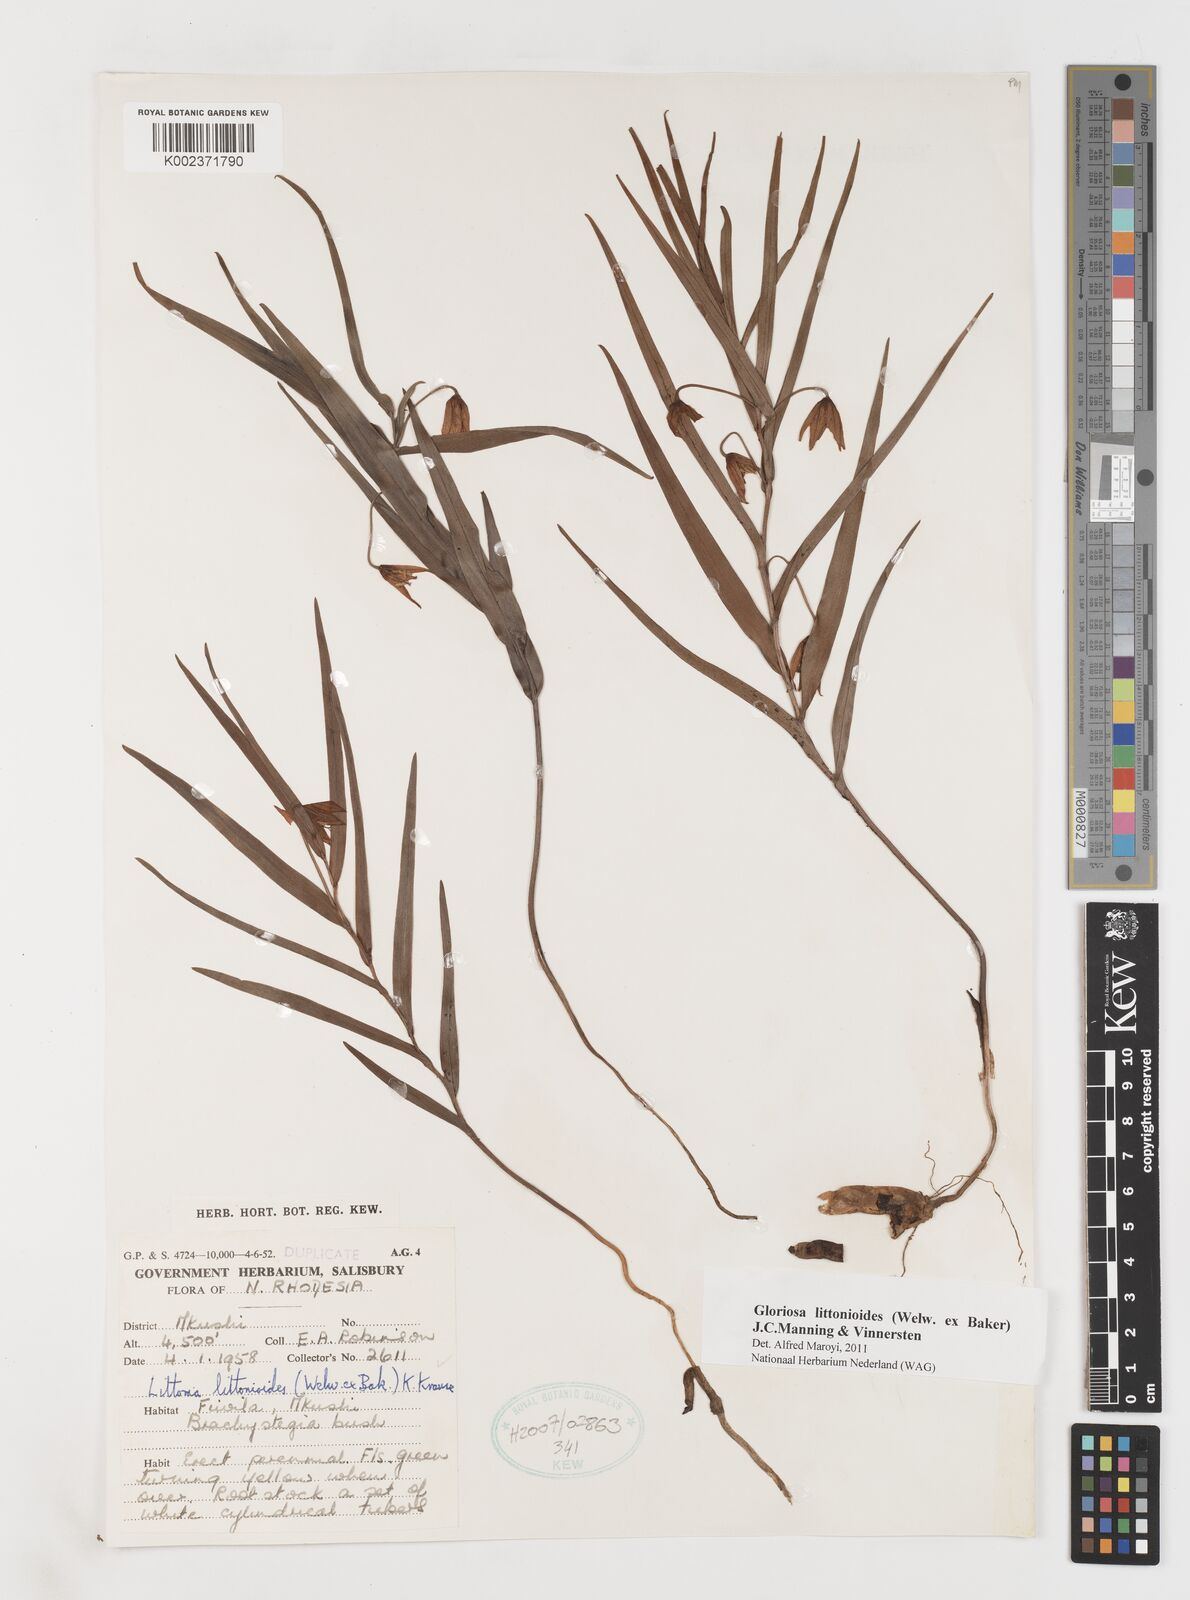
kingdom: Plantae
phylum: Tracheophyta
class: Liliopsida
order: Liliales
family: Colchicaceae
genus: Gloriosa
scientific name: Gloriosa littonioides
